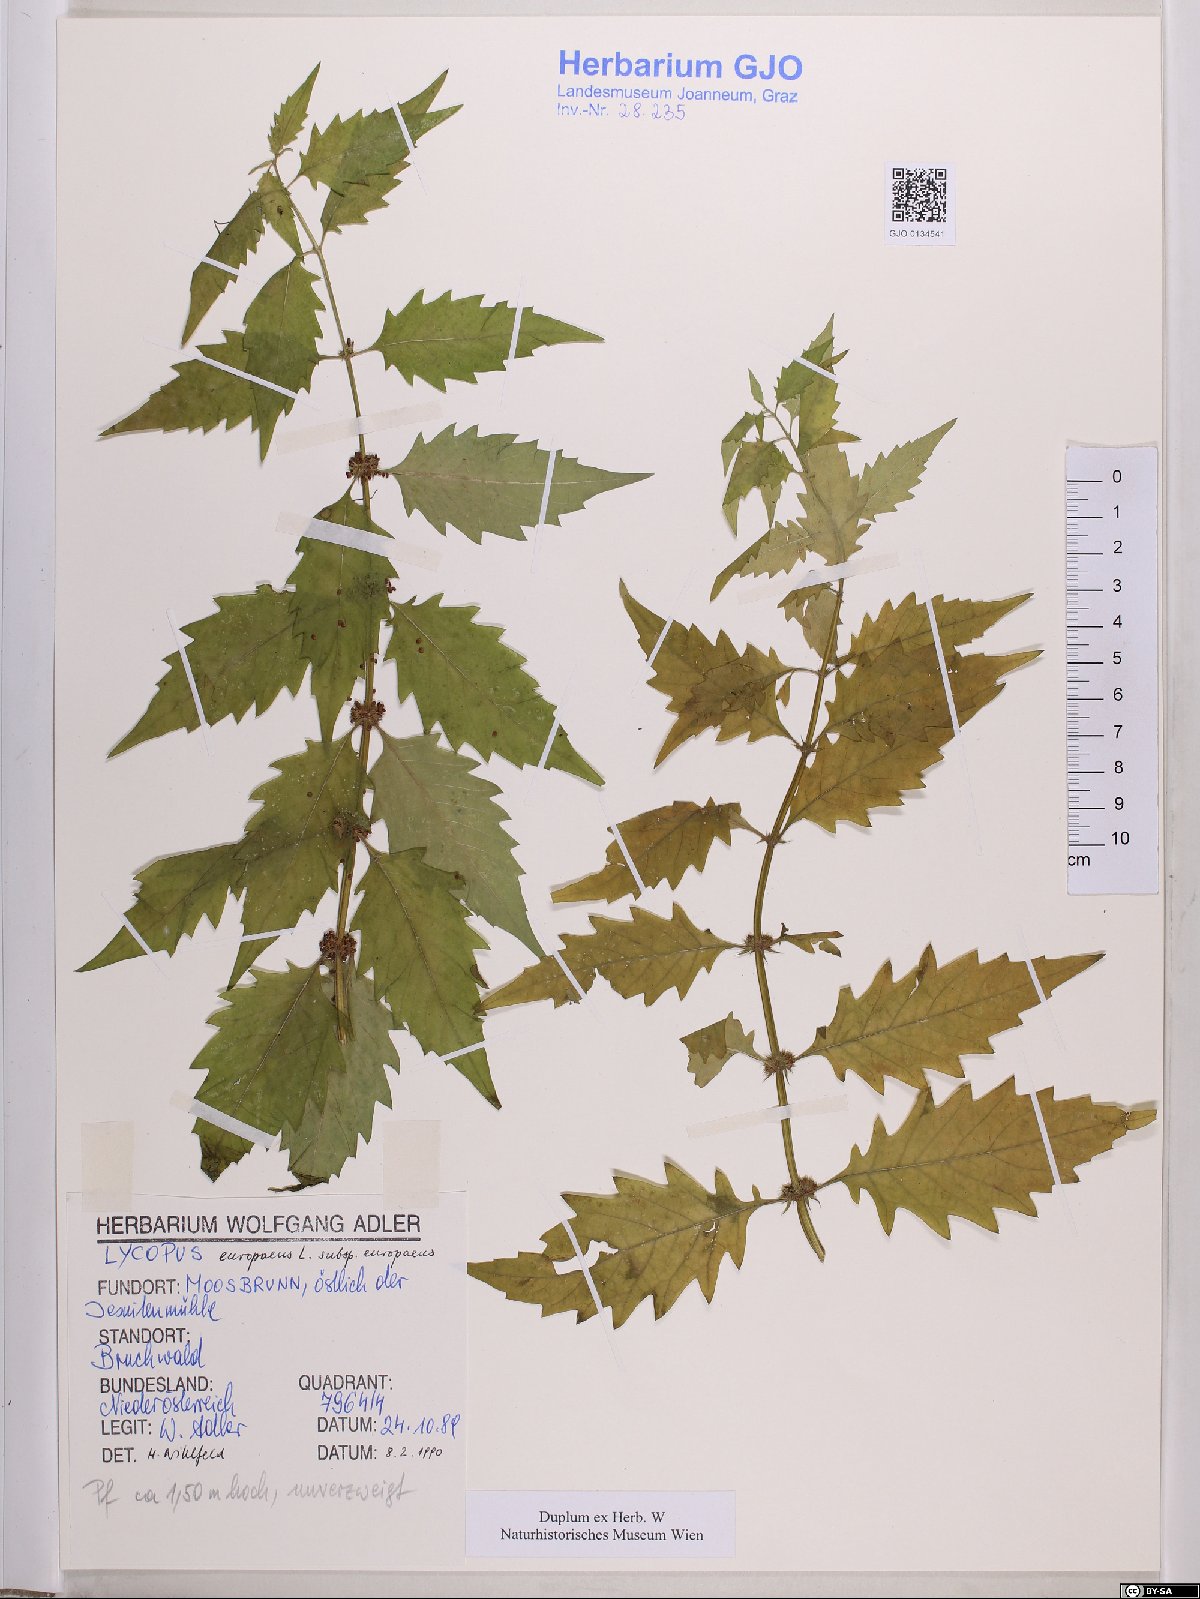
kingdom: Plantae
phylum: Tracheophyta
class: Magnoliopsida
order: Lamiales
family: Lamiaceae
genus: Lycopus
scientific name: Lycopus europaeus
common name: European bugleweed
